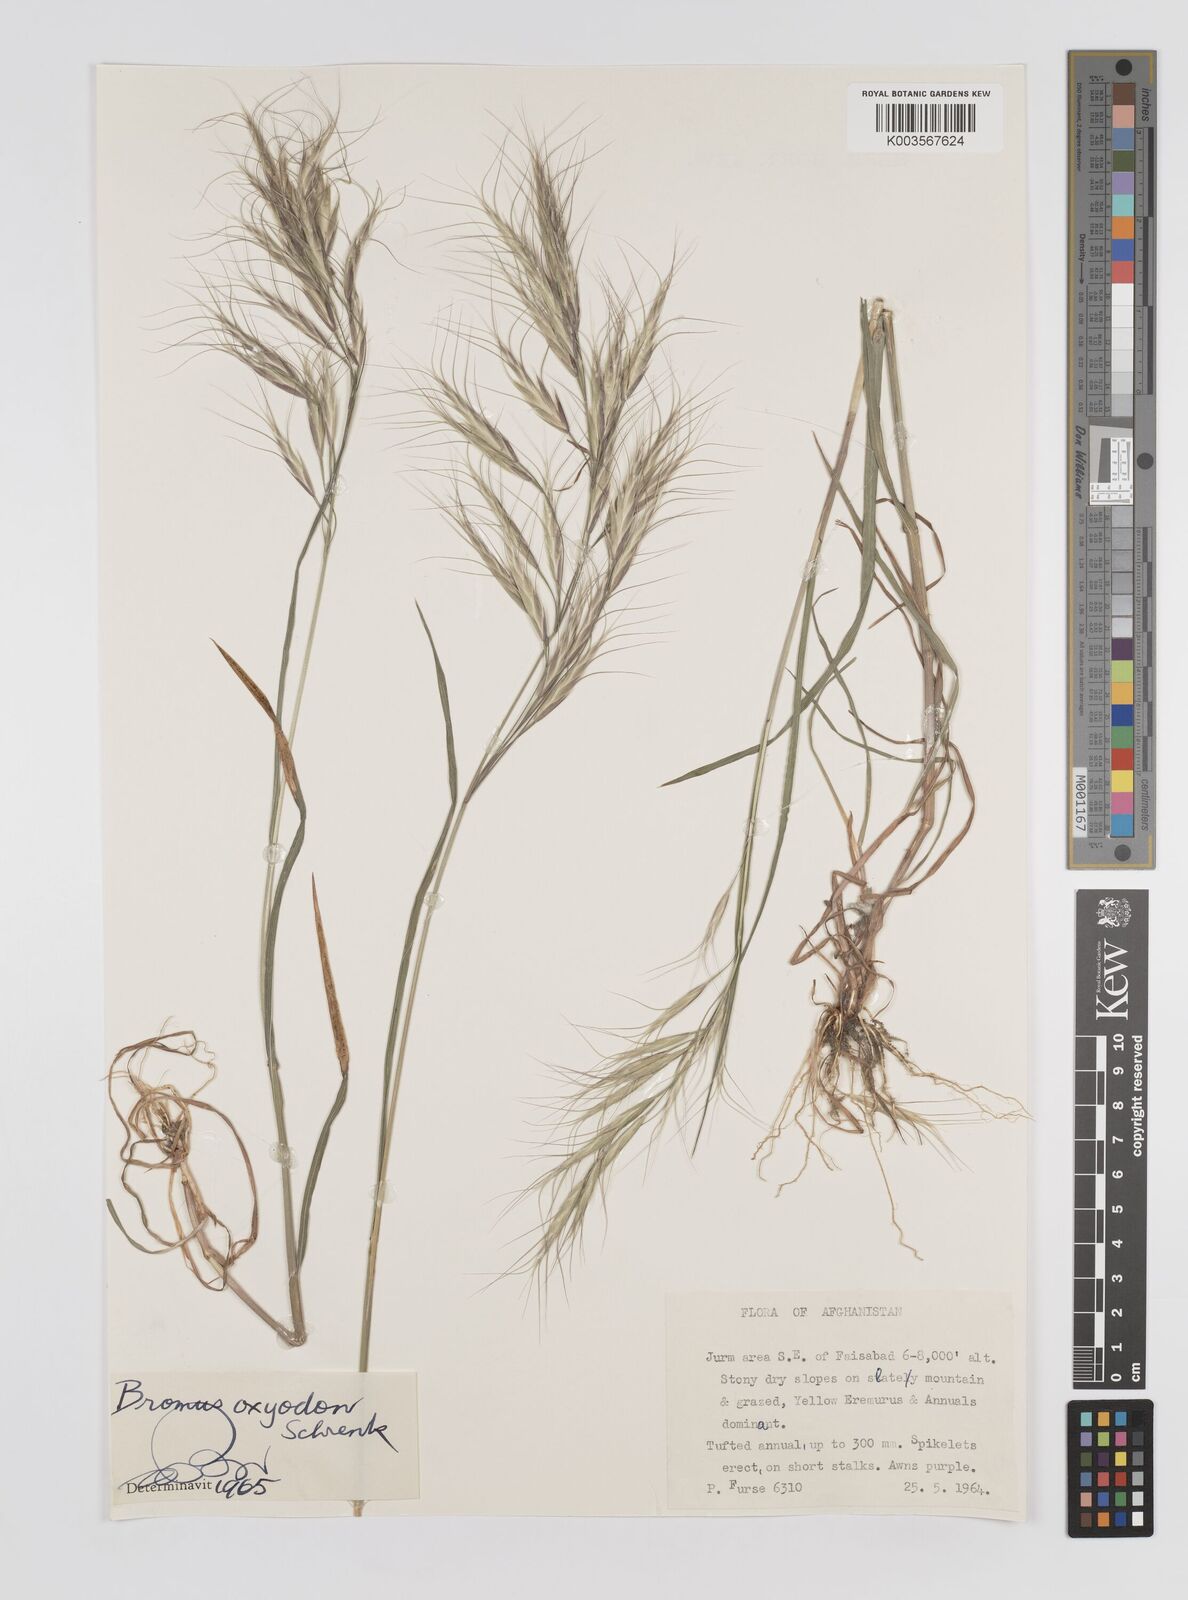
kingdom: Plantae
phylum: Tracheophyta
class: Liliopsida
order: Poales
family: Poaceae
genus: Bromus
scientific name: Bromus oxyodon
